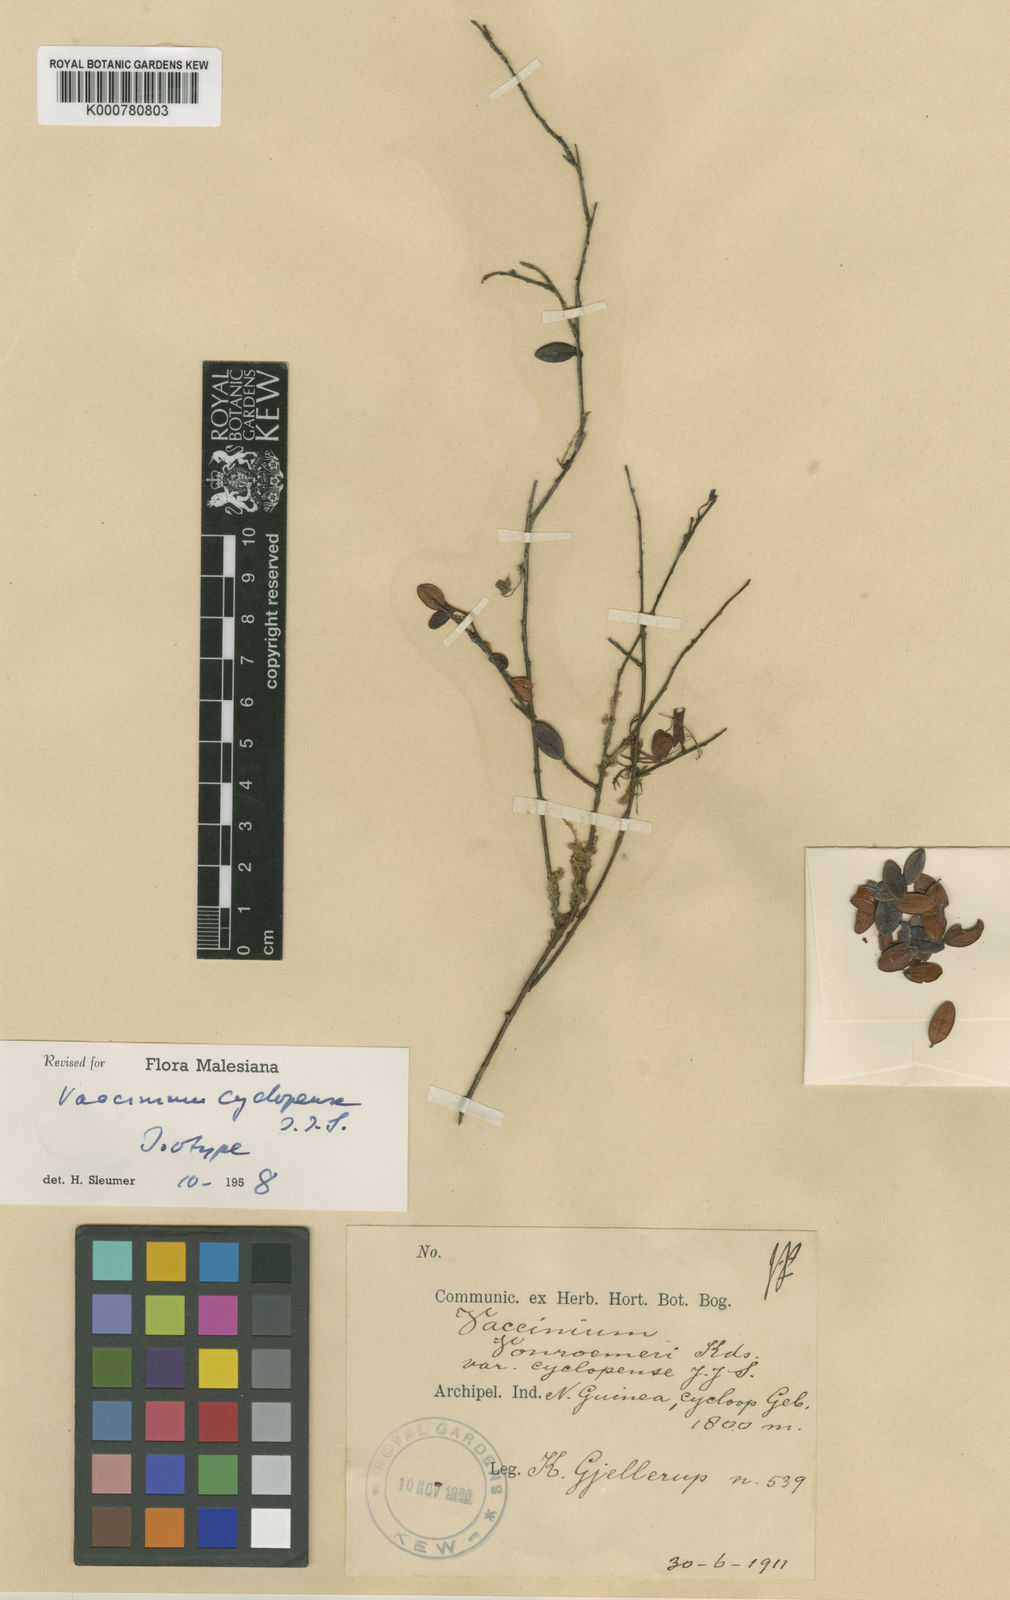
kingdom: Plantae
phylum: Tracheophyta
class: Magnoliopsida
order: Ericales
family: Ericaceae
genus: Vaccinium
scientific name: Vaccinium cyclopense
